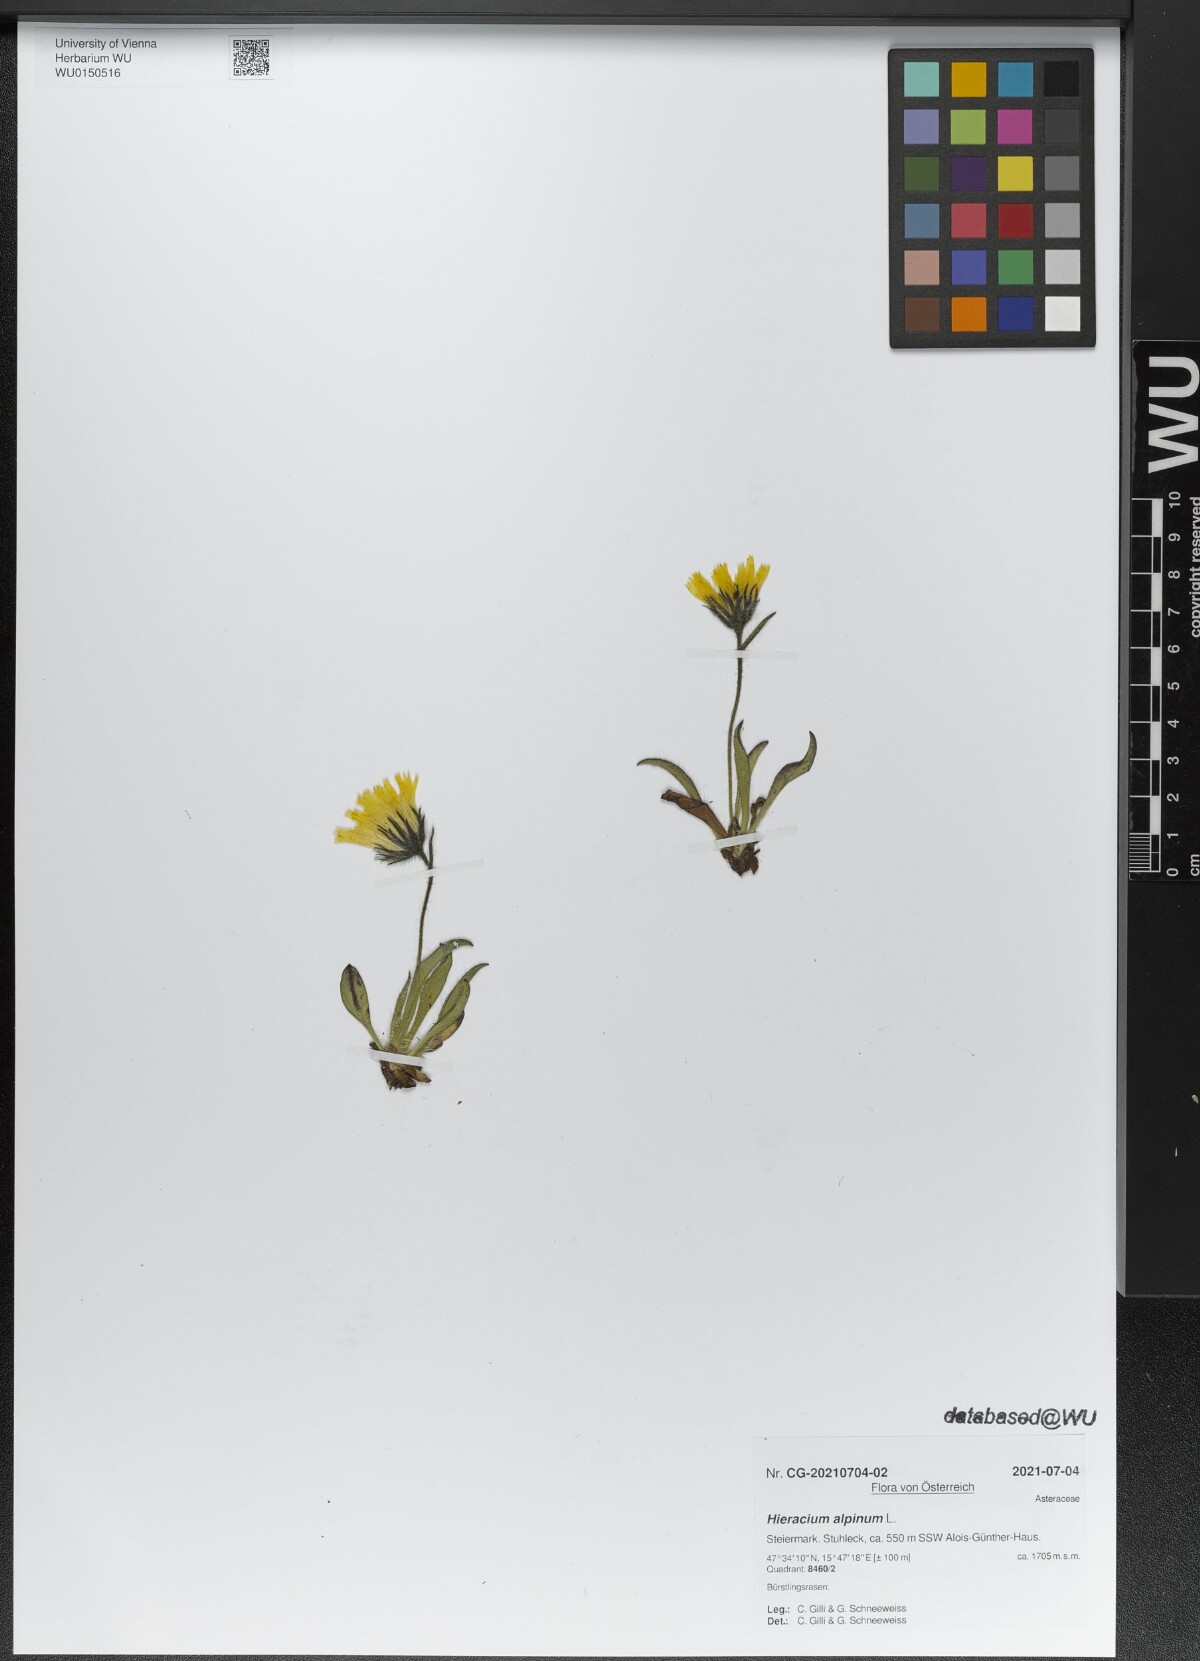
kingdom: Plantae
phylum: Tracheophyta
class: Magnoliopsida
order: Asterales
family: Asteraceae
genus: Hieracium
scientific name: Hieracium alpinum
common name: Alpine hawkweed
